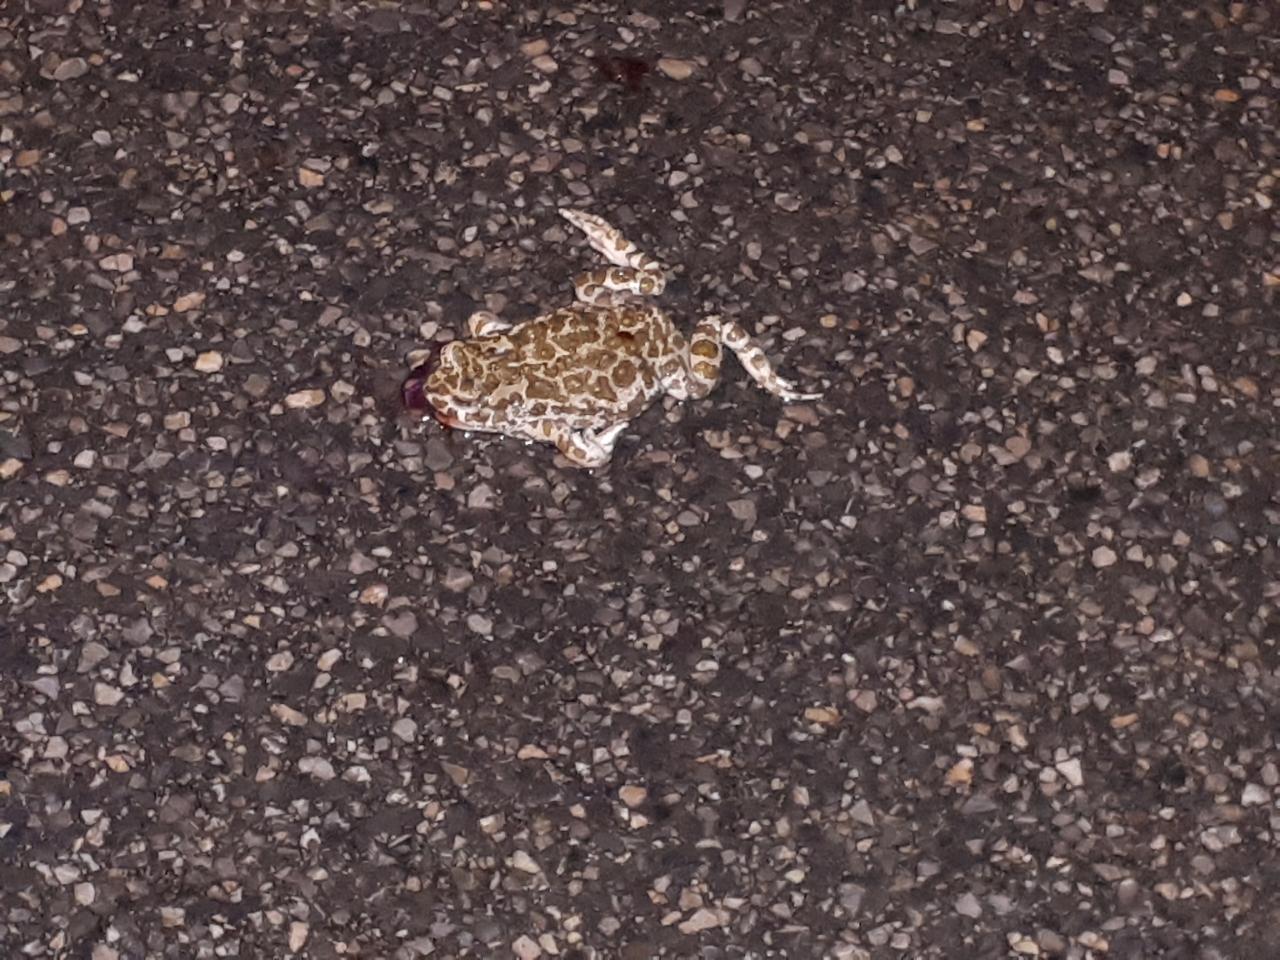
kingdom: Animalia
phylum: Chordata
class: Amphibia
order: Anura
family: Bufonidae
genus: Bufotes
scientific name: Bufotes viridis
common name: European green toad
